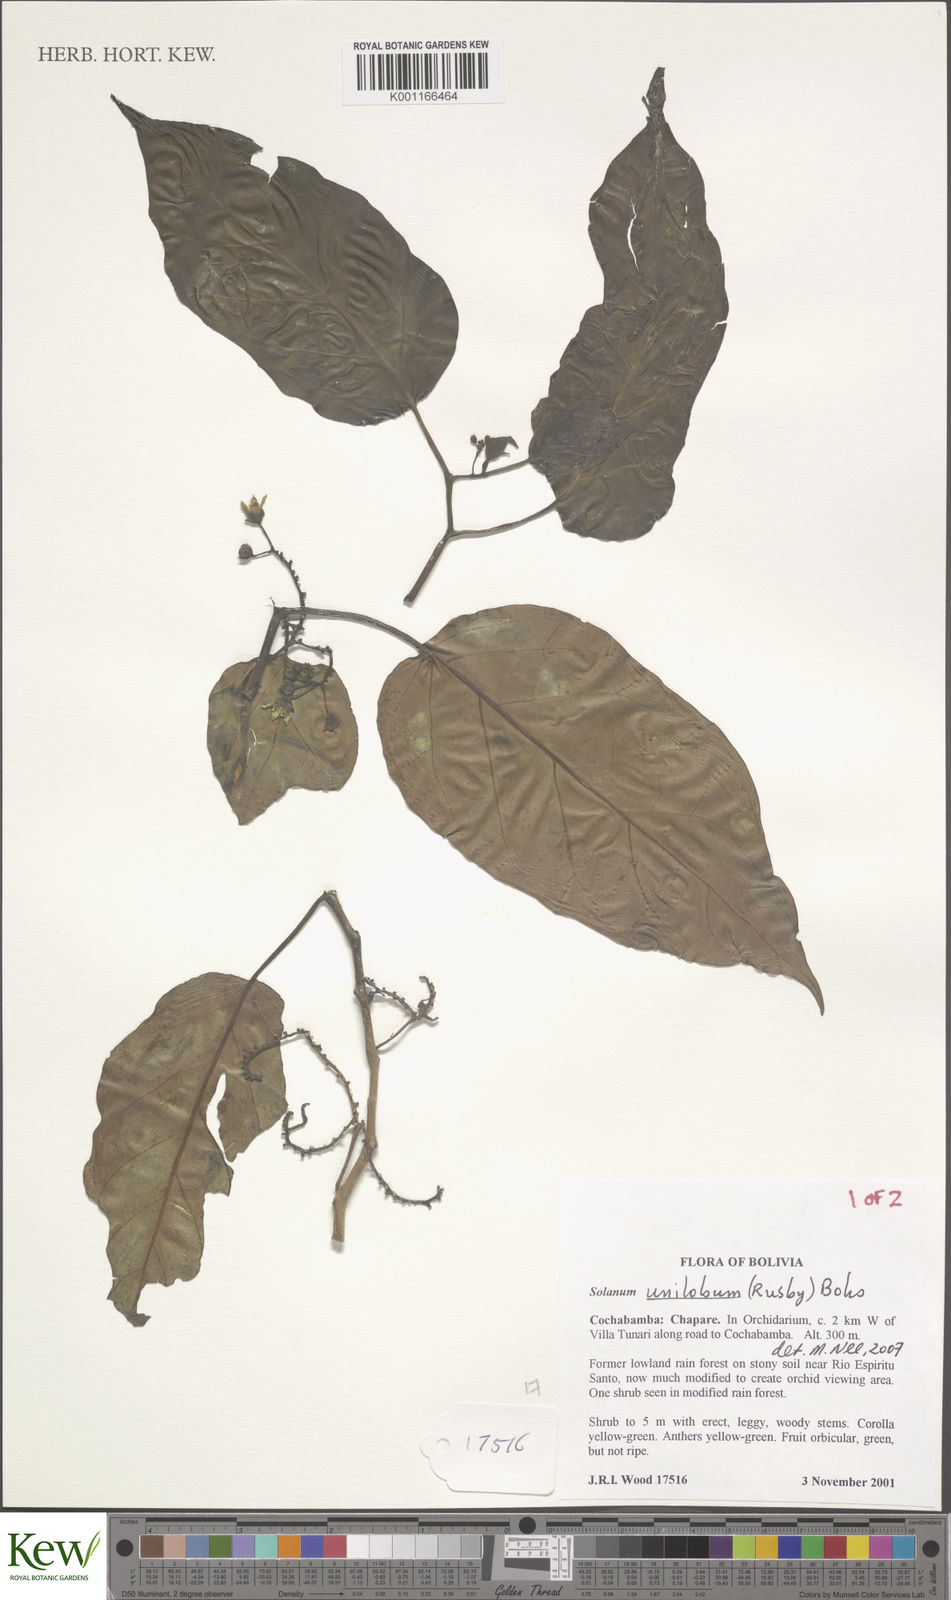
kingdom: Plantae
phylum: Tracheophyta
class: Magnoliopsida
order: Solanales
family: Solanaceae
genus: Solanum
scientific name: Solanum unilobum
